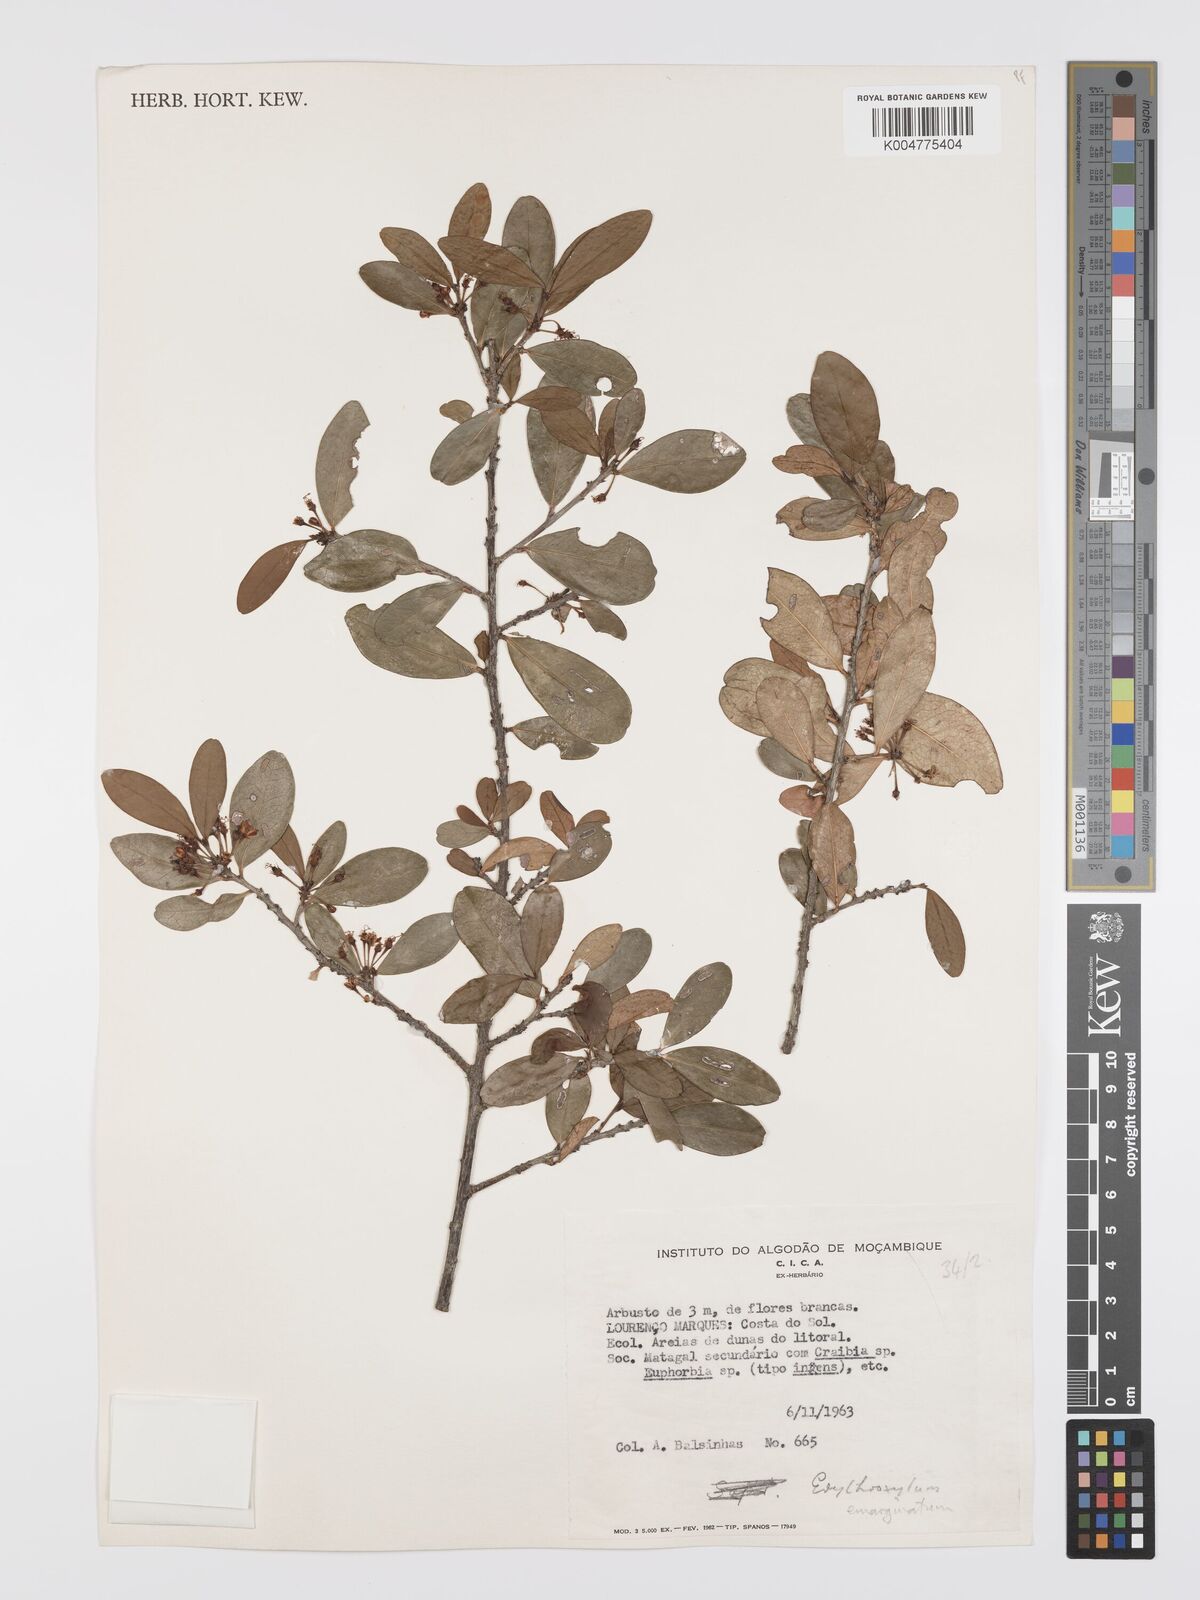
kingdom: Plantae
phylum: Tracheophyta
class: Magnoliopsida
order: Malpighiales
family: Erythroxylaceae
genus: Erythroxylum
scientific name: Erythroxylum emarginatum
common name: African coca-tree
